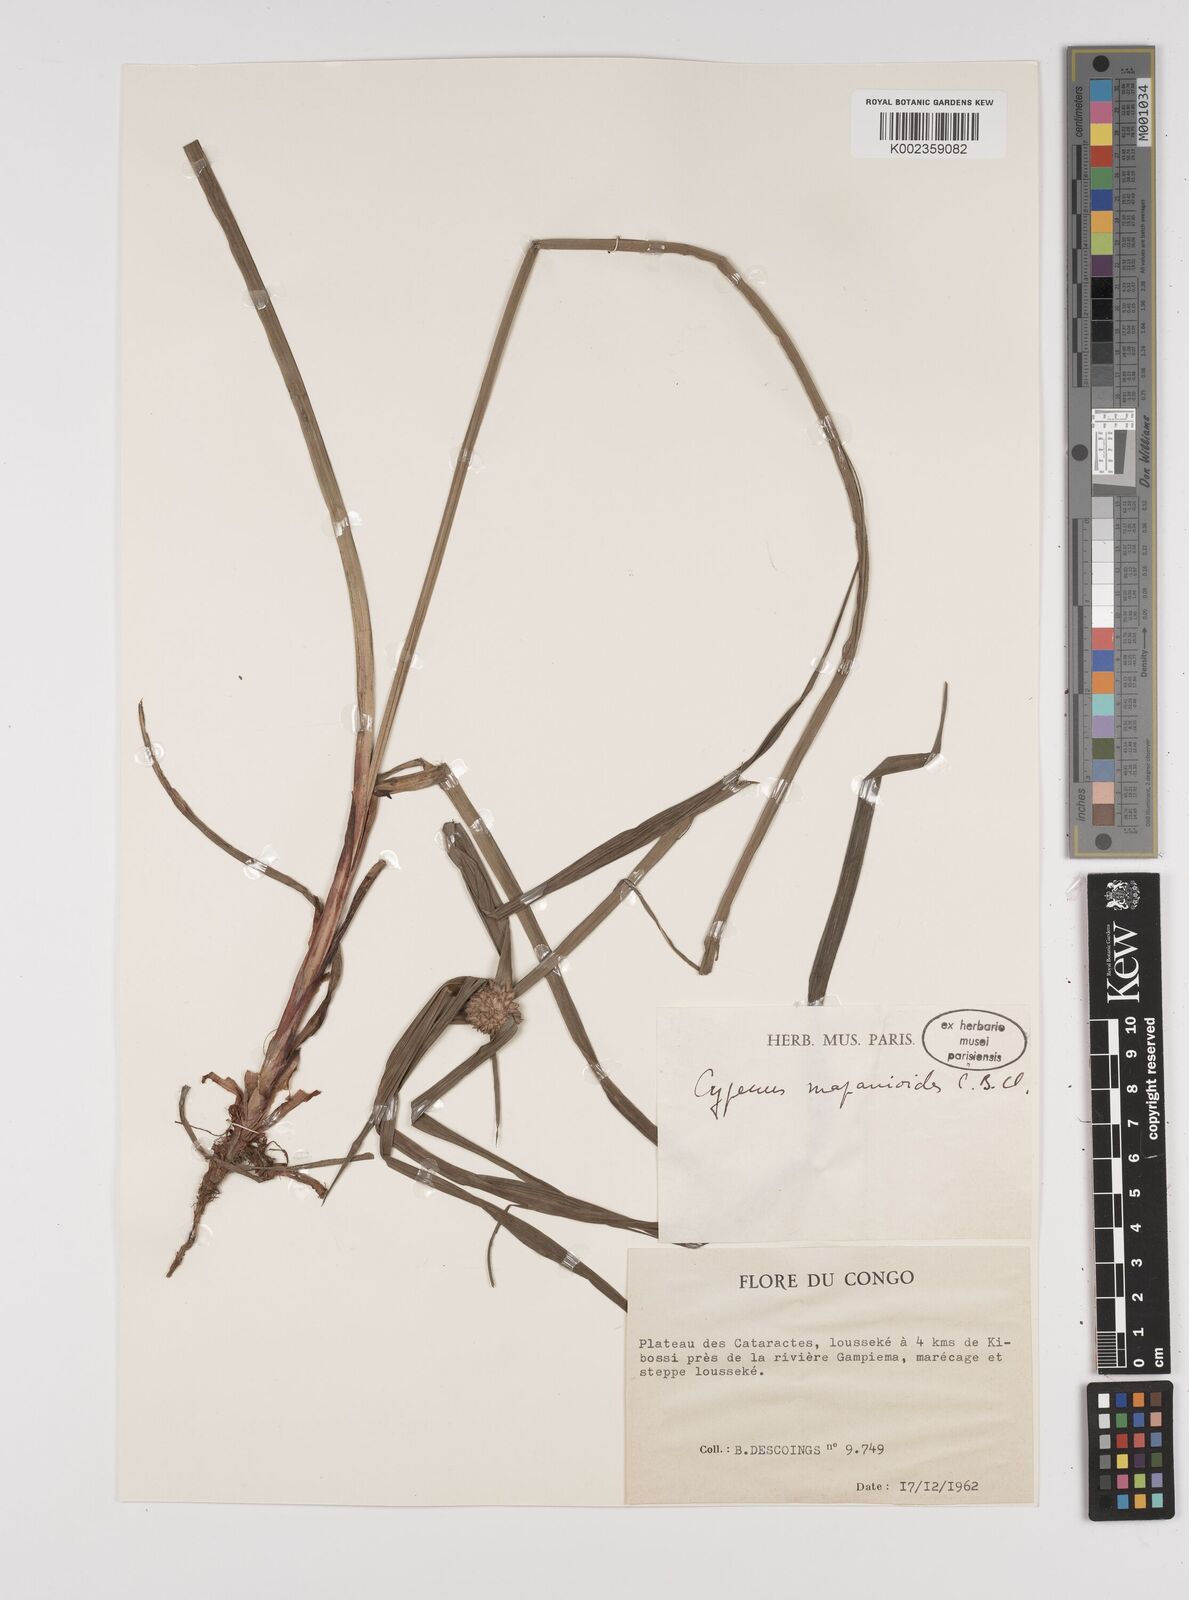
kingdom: Plantae
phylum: Tracheophyta
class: Liliopsida
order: Poales
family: Cyperaceae
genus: Cyperus
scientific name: Cyperus mapanioides
